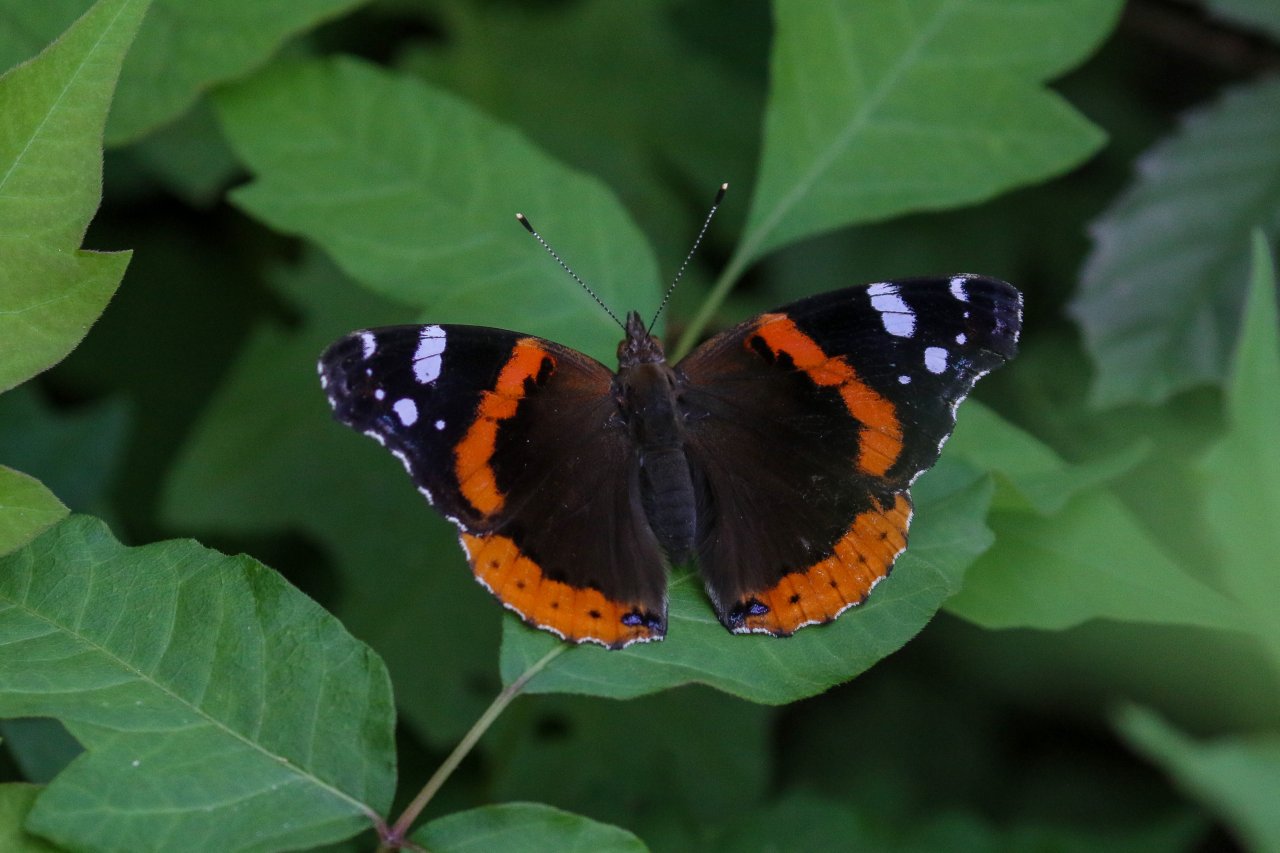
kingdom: Animalia
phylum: Arthropoda
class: Insecta
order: Lepidoptera
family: Nymphalidae
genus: Vanessa
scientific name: Vanessa atalanta
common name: Red Admiral
